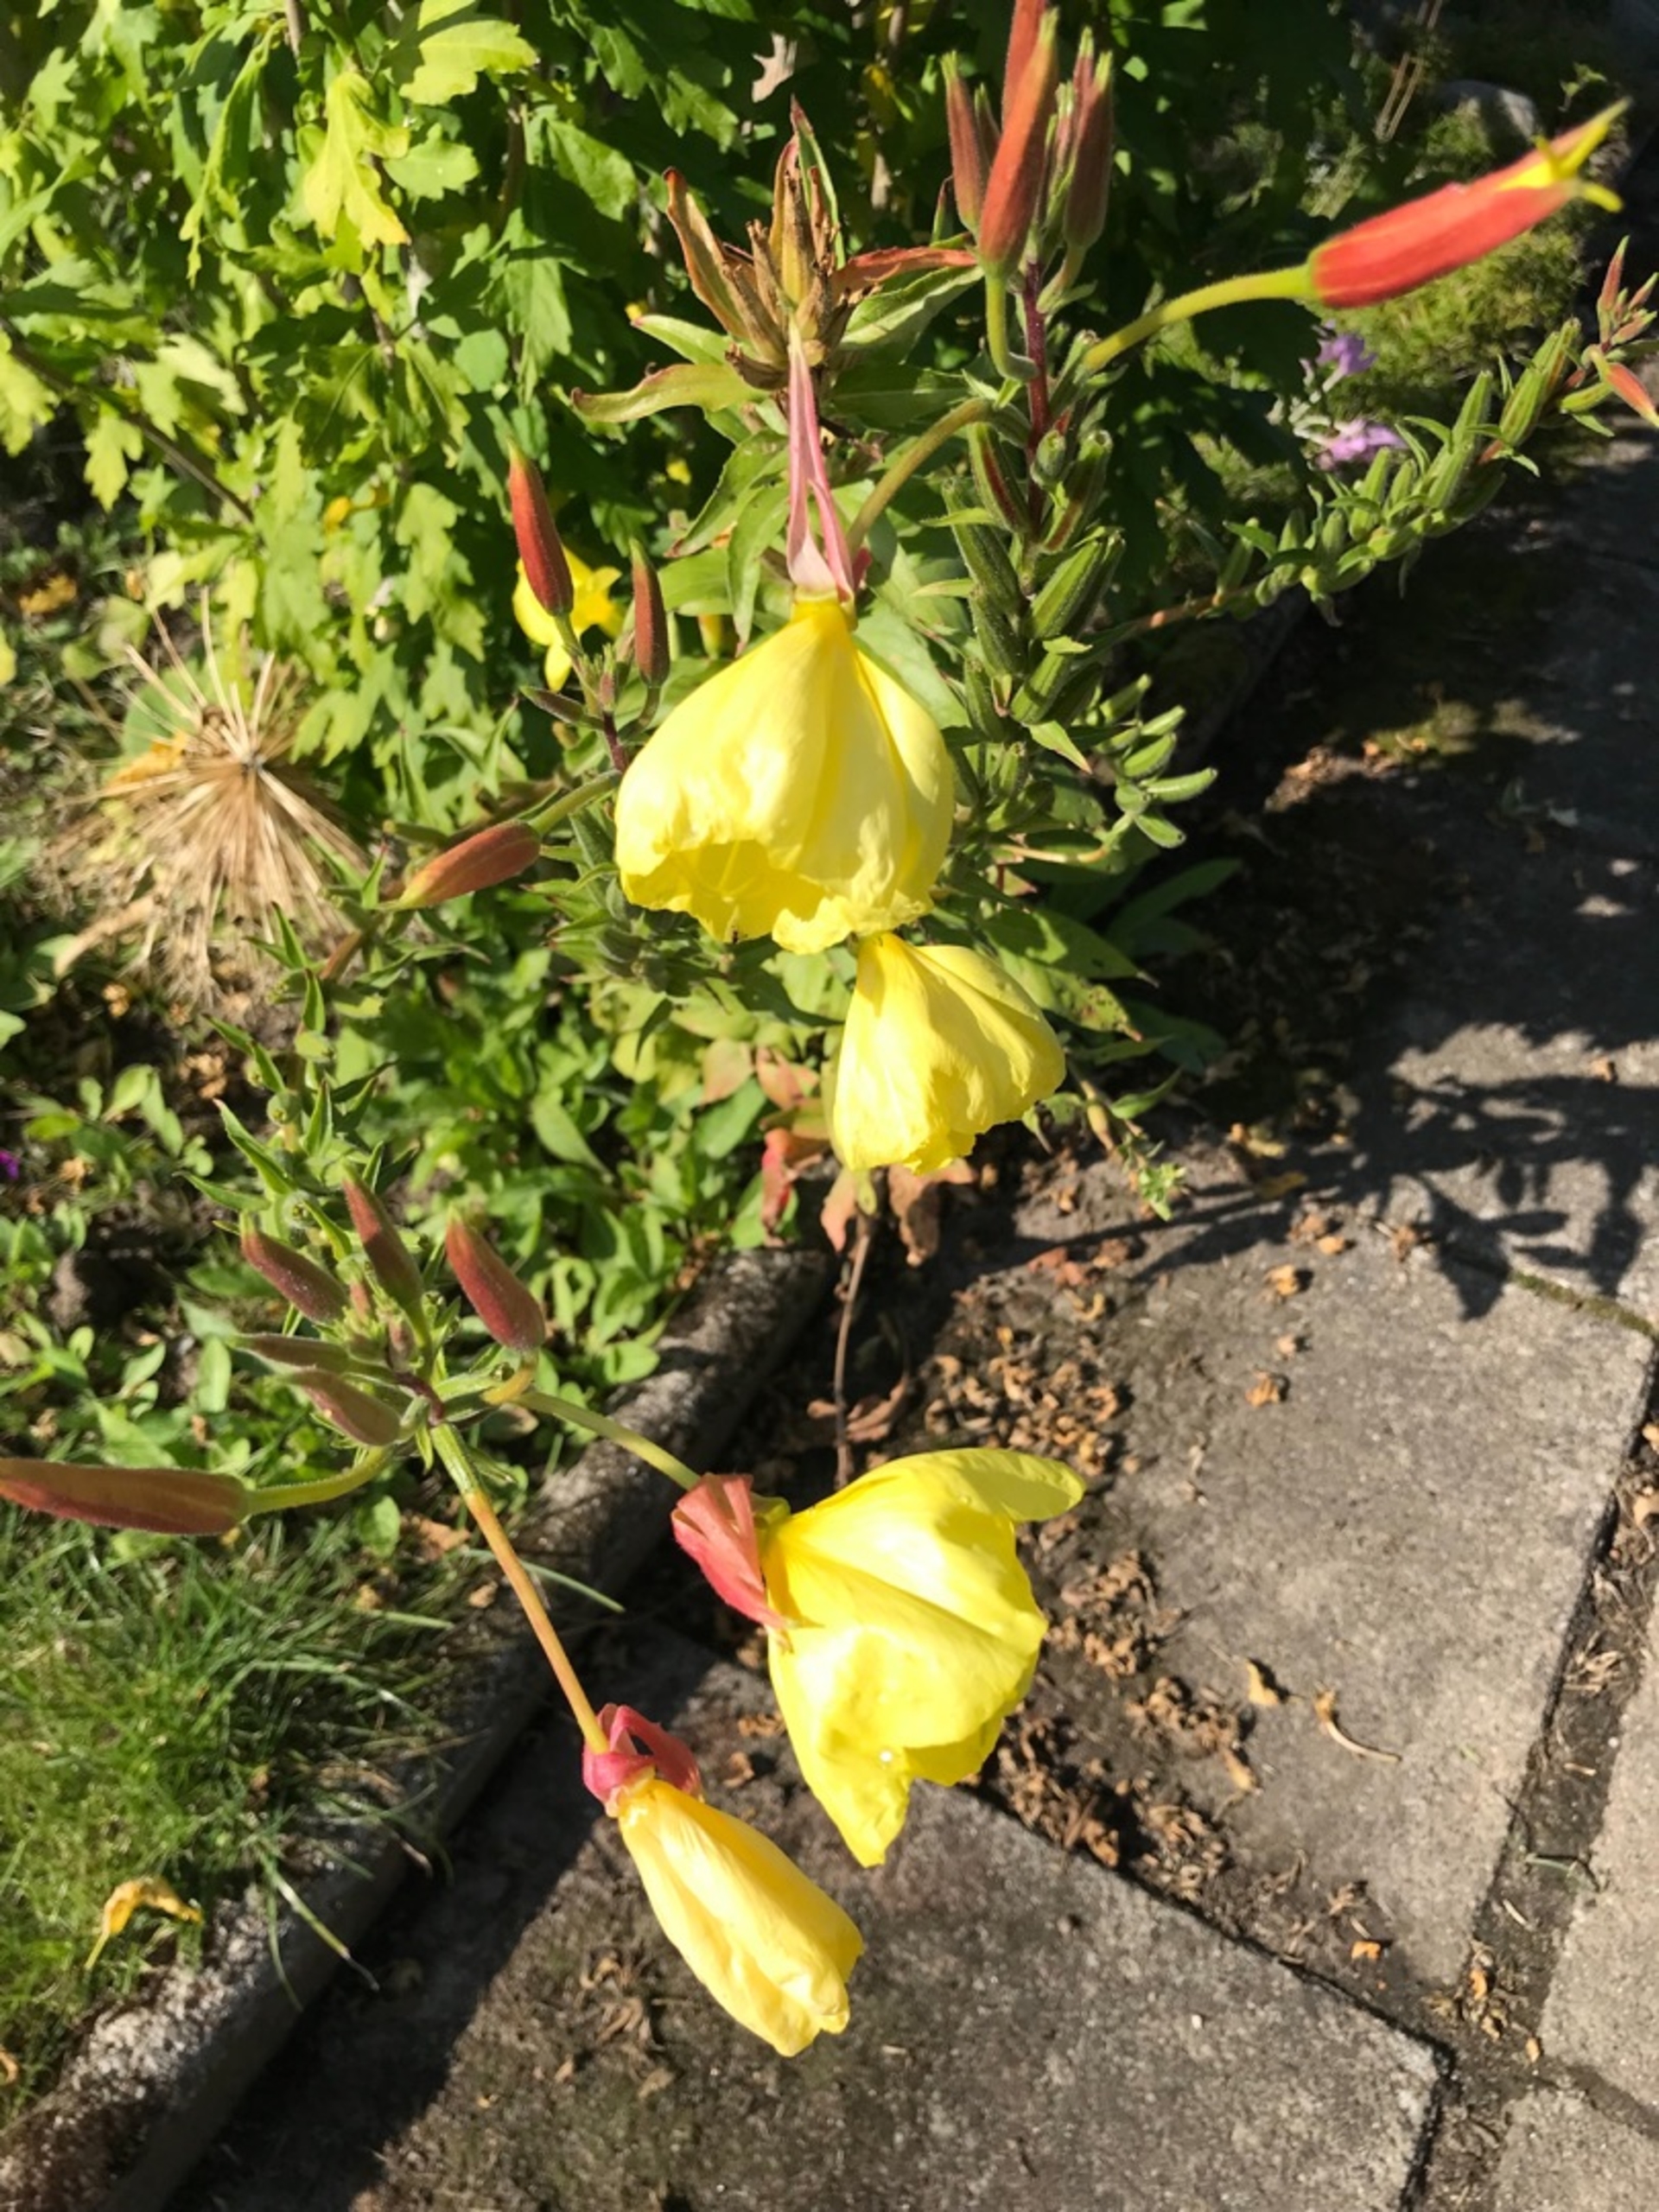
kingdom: Plantae
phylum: Tracheophyta
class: Magnoliopsida
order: Myrtales
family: Onagraceae
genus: Oenothera
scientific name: Oenothera glazioviana
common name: Kæmpe-natlys
